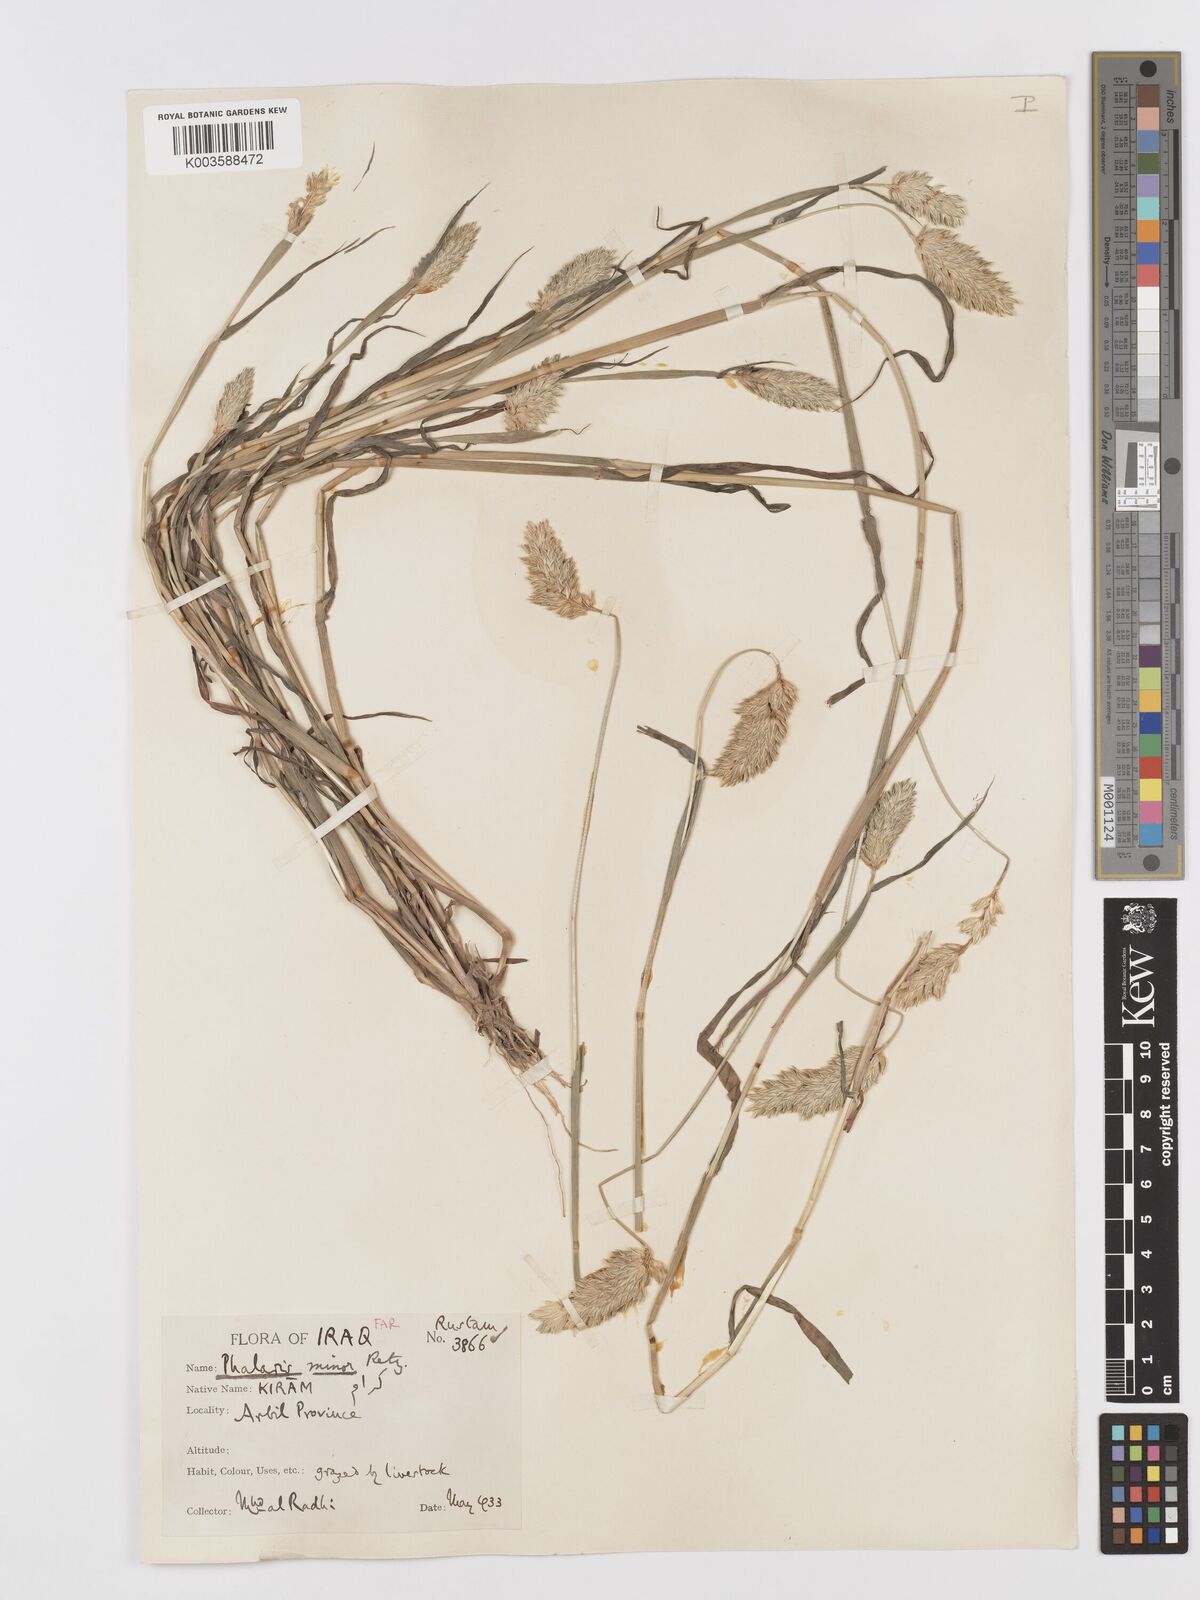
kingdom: Plantae
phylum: Tracheophyta
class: Liliopsida
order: Poales
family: Poaceae
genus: Phalaris
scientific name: Phalaris minor
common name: Littleseed canarygrass
